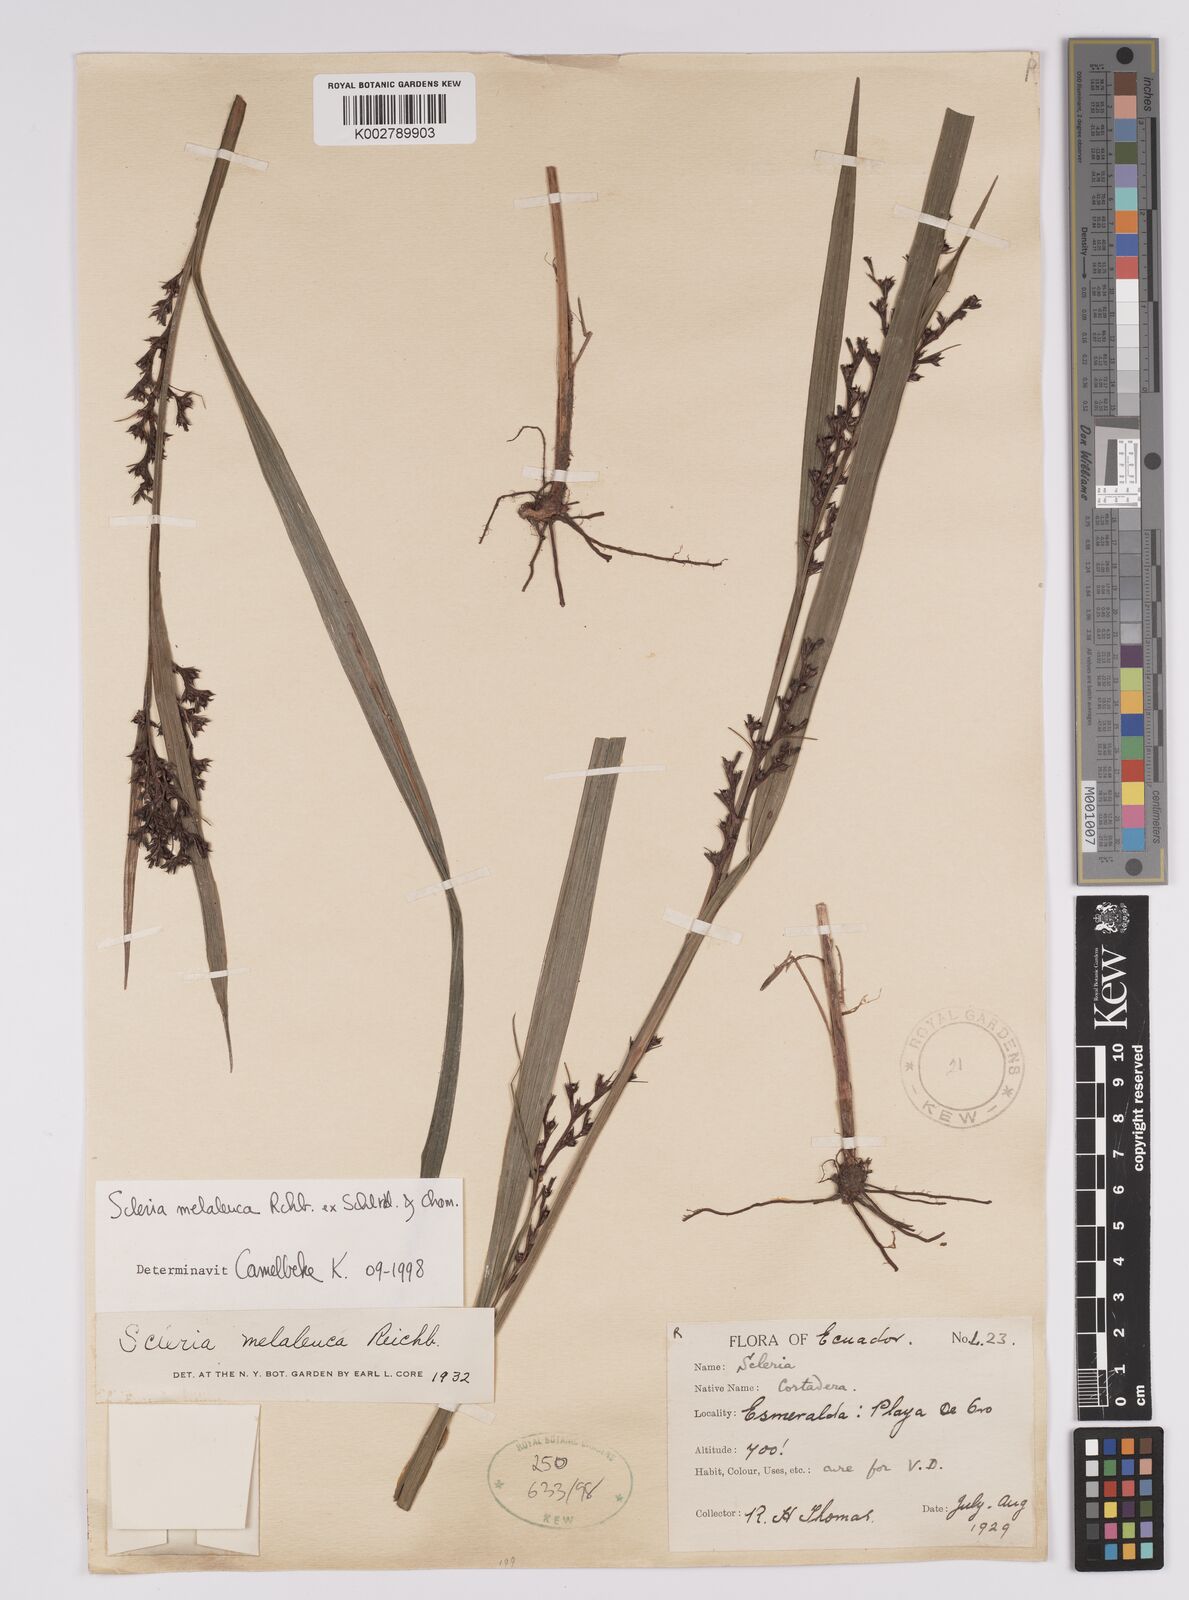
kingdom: Plantae
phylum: Tracheophyta
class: Liliopsida
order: Poales
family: Cyperaceae
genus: Scleria
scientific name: Scleria gaertneri
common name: Cortadera blanca
